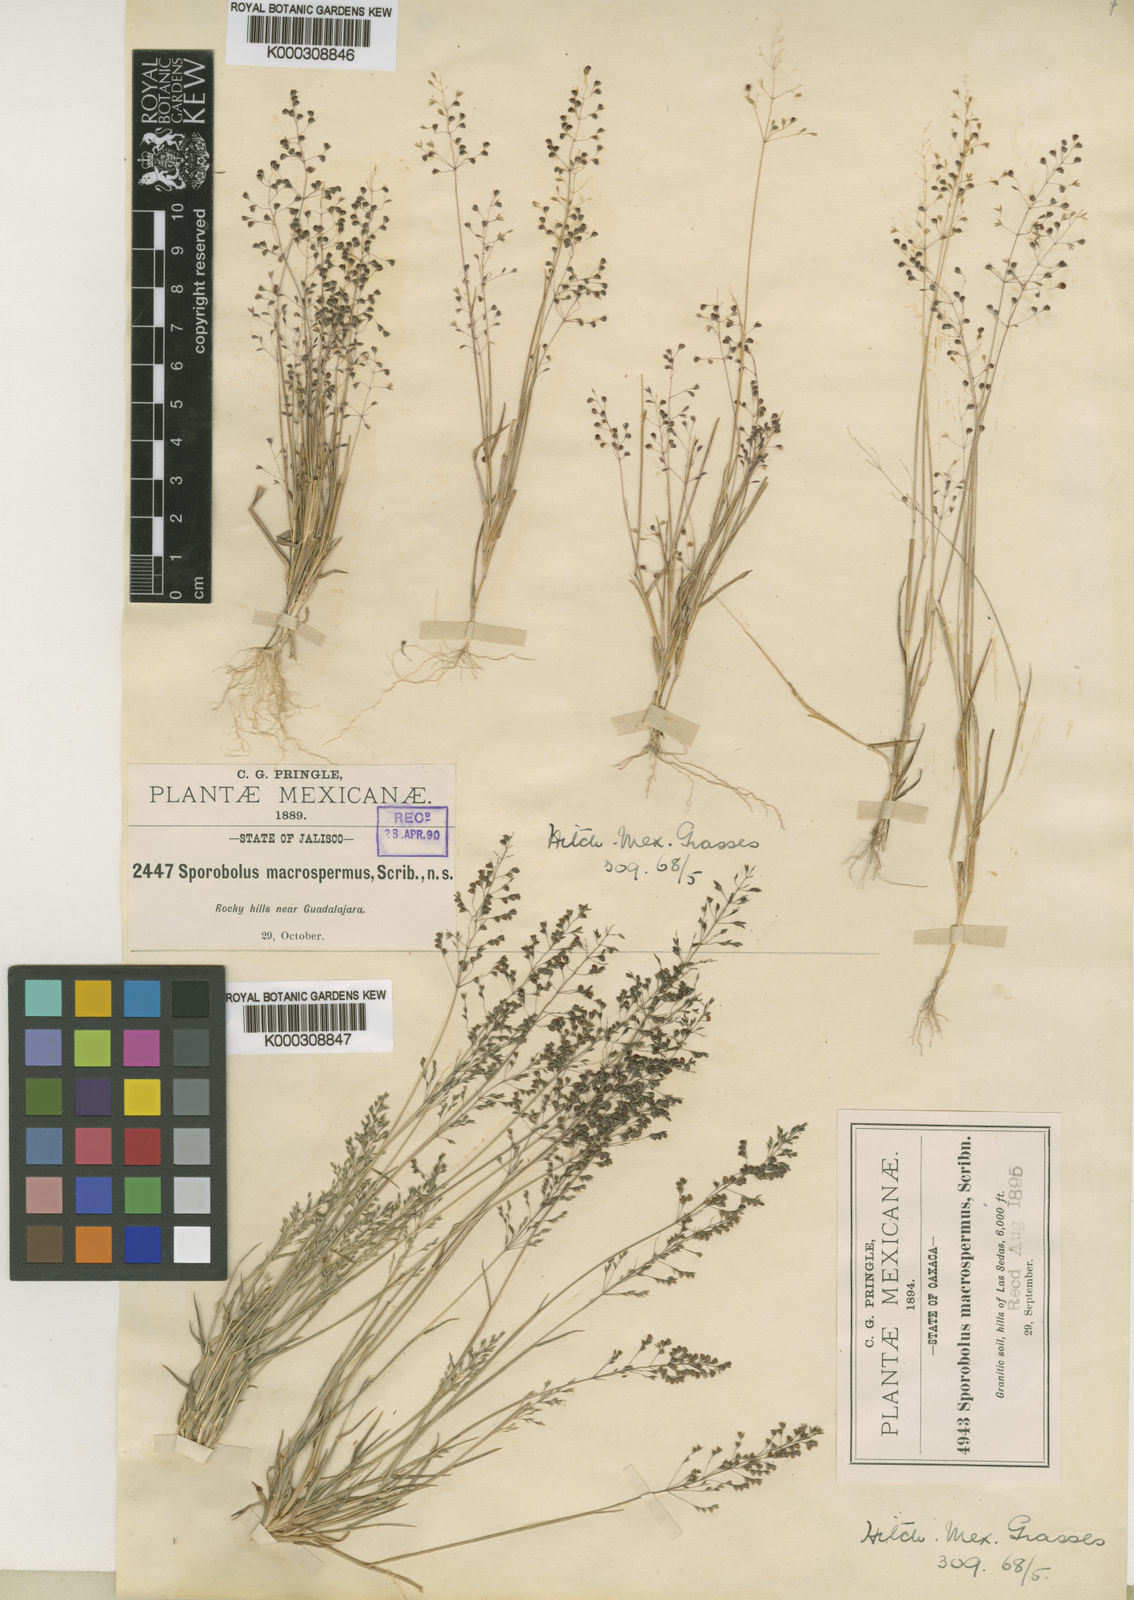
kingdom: Plantae
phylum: Tracheophyta
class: Liliopsida
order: Poales
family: Poaceae
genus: Sporobolus
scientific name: Sporobolus
